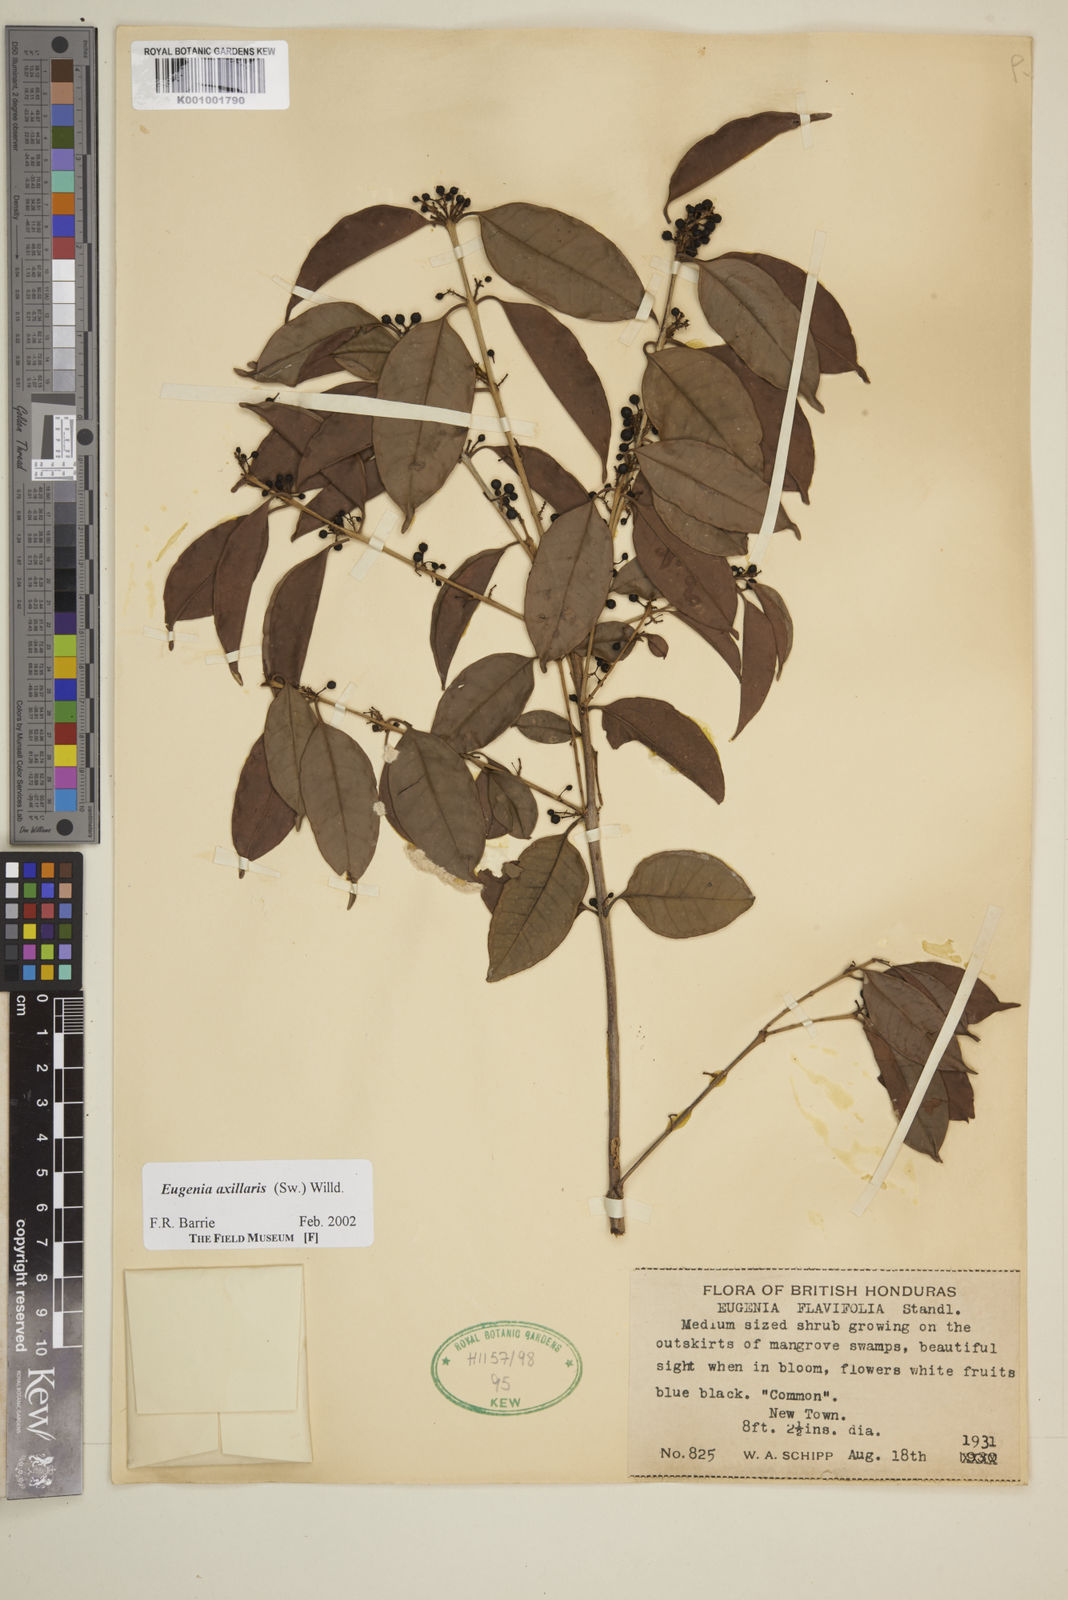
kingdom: Plantae
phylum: Tracheophyta
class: Magnoliopsida
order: Myrtales
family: Myrtaceae
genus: Eugenia
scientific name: Eugenia axillaris
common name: Choaky berry
